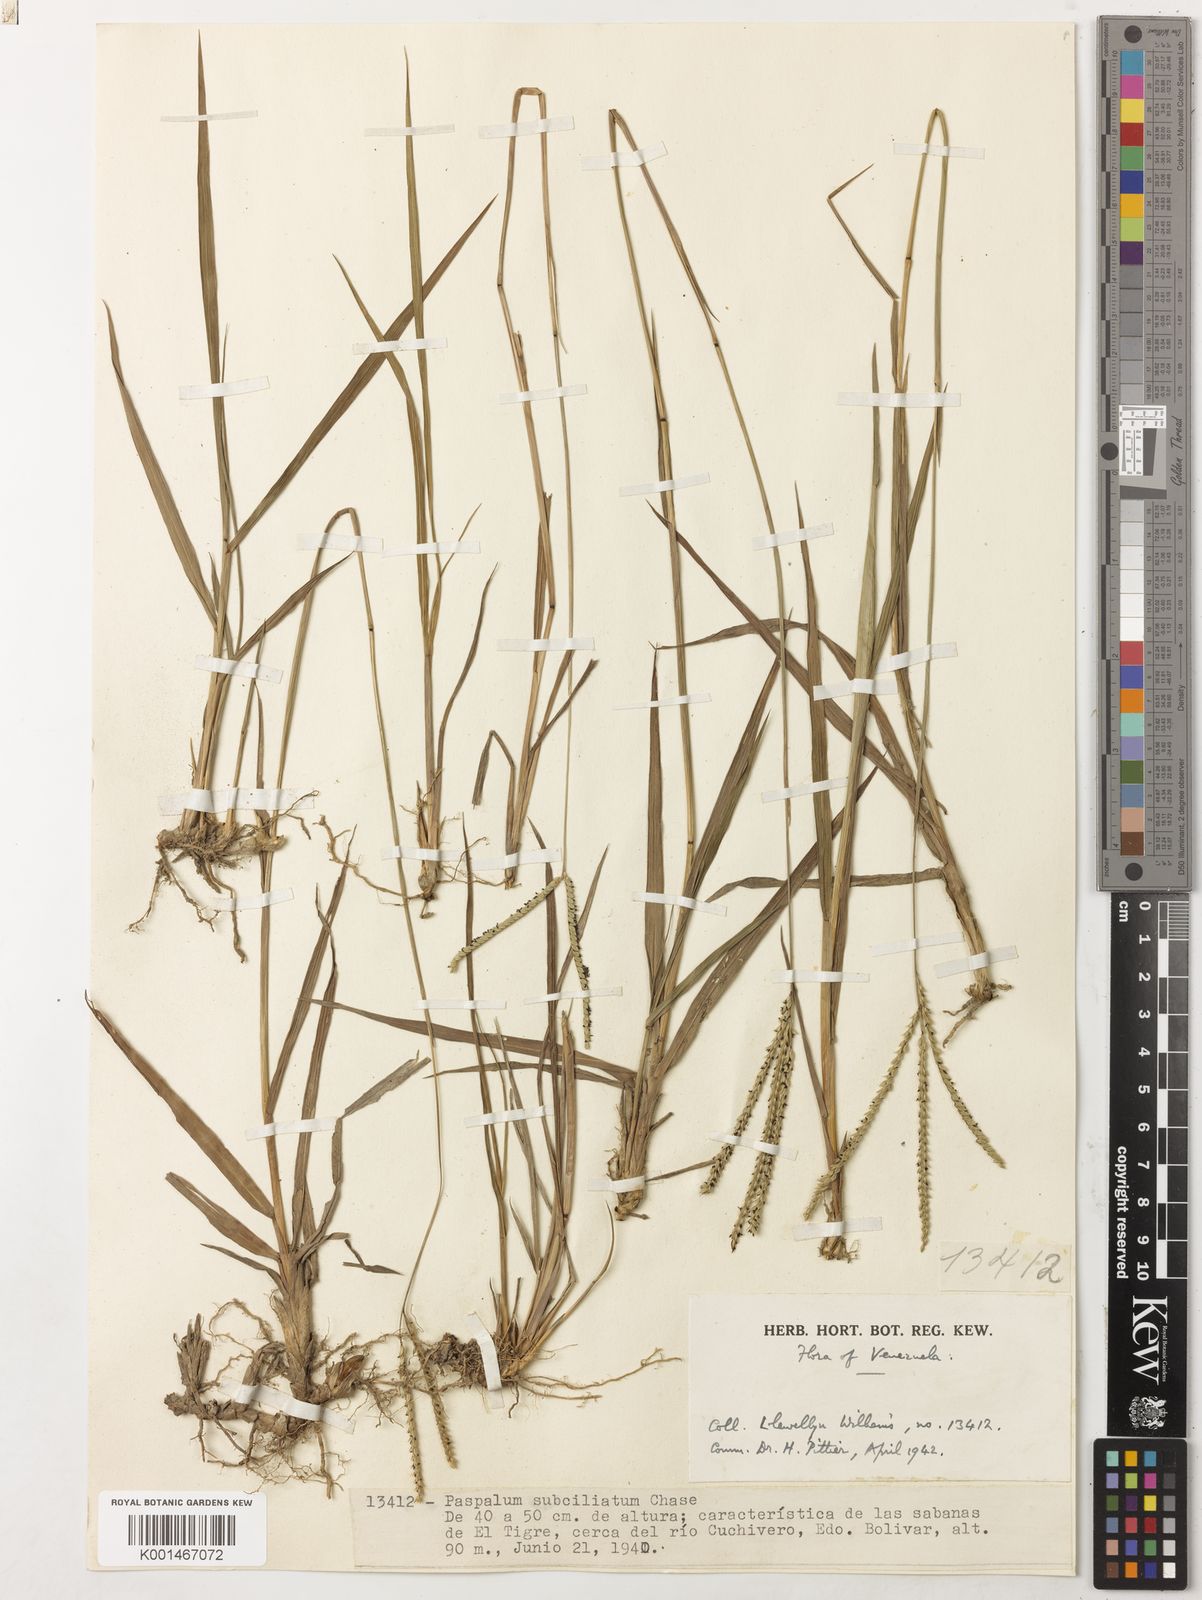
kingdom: Plantae
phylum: Tracheophyta
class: Liliopsida
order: Poales
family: Poaceae
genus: Paspalum
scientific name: Paspalum subciliatum
